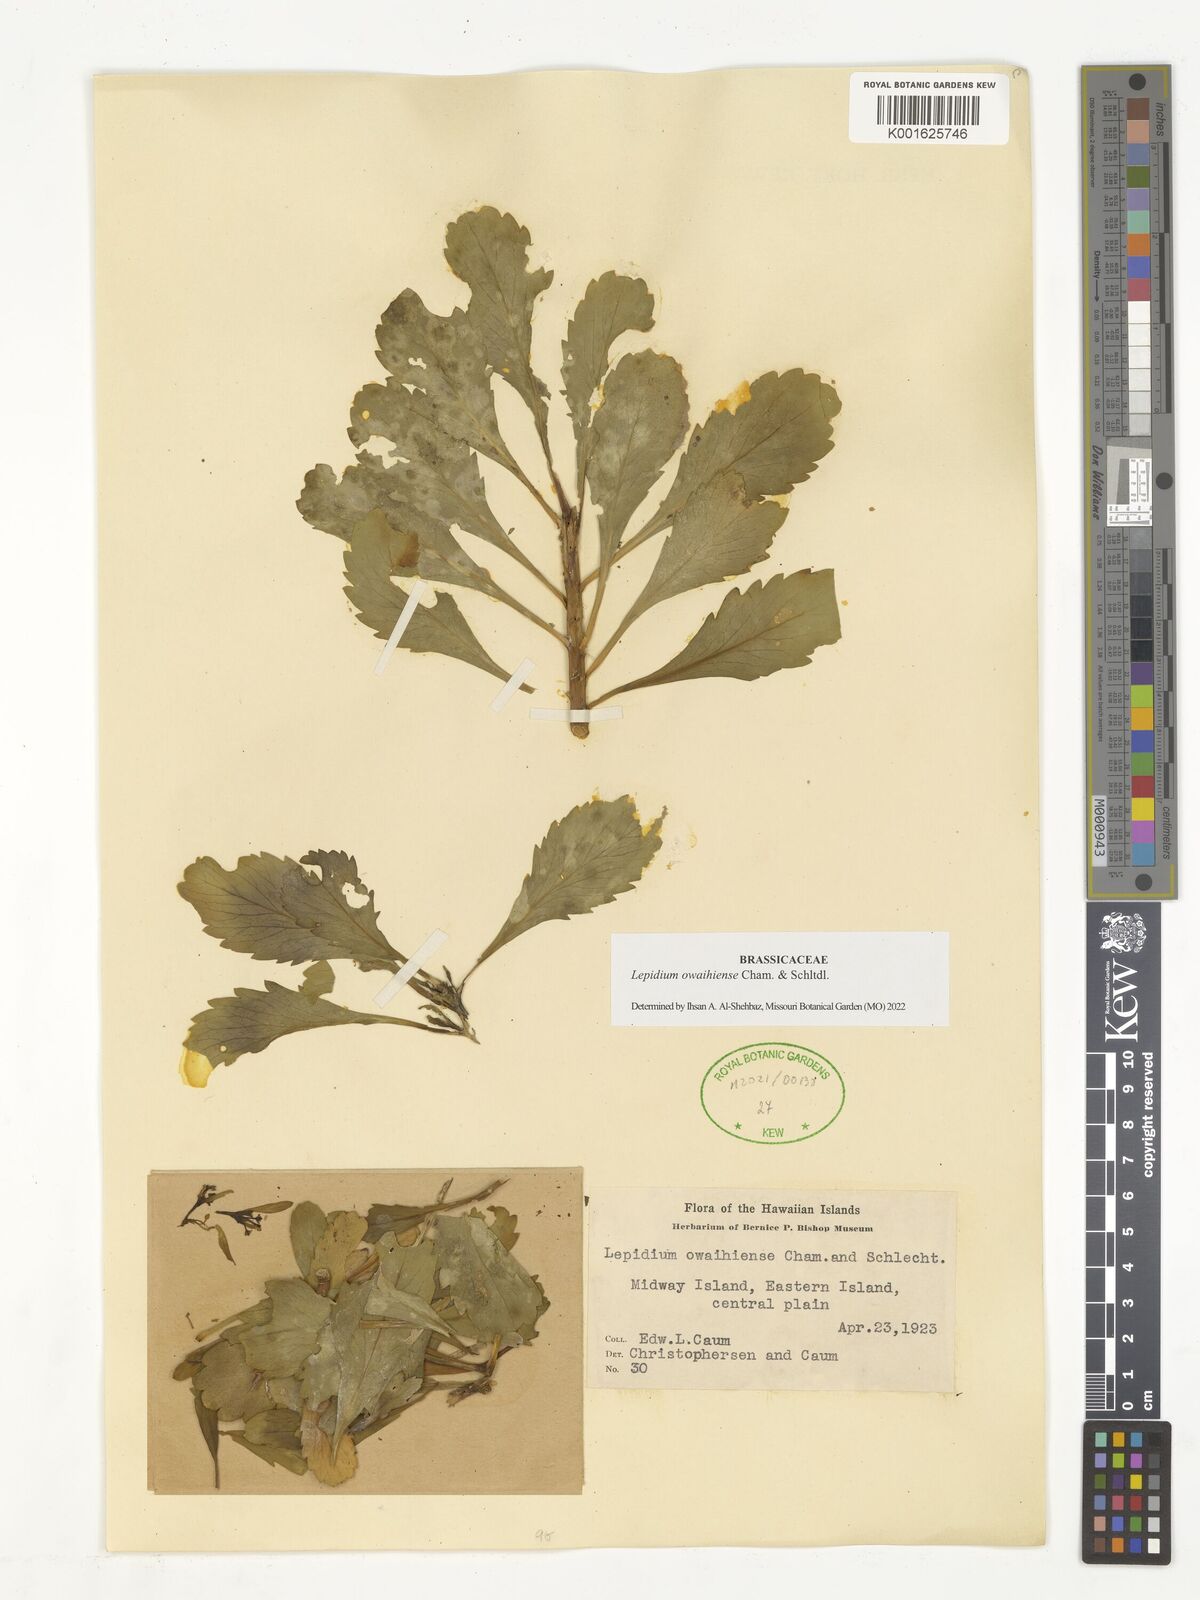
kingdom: Plantae
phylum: Tracheophyta
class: Magnoliopsida
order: Brassicales
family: Brassicaceae
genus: Lepidium
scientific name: Lepidium owaihiense
